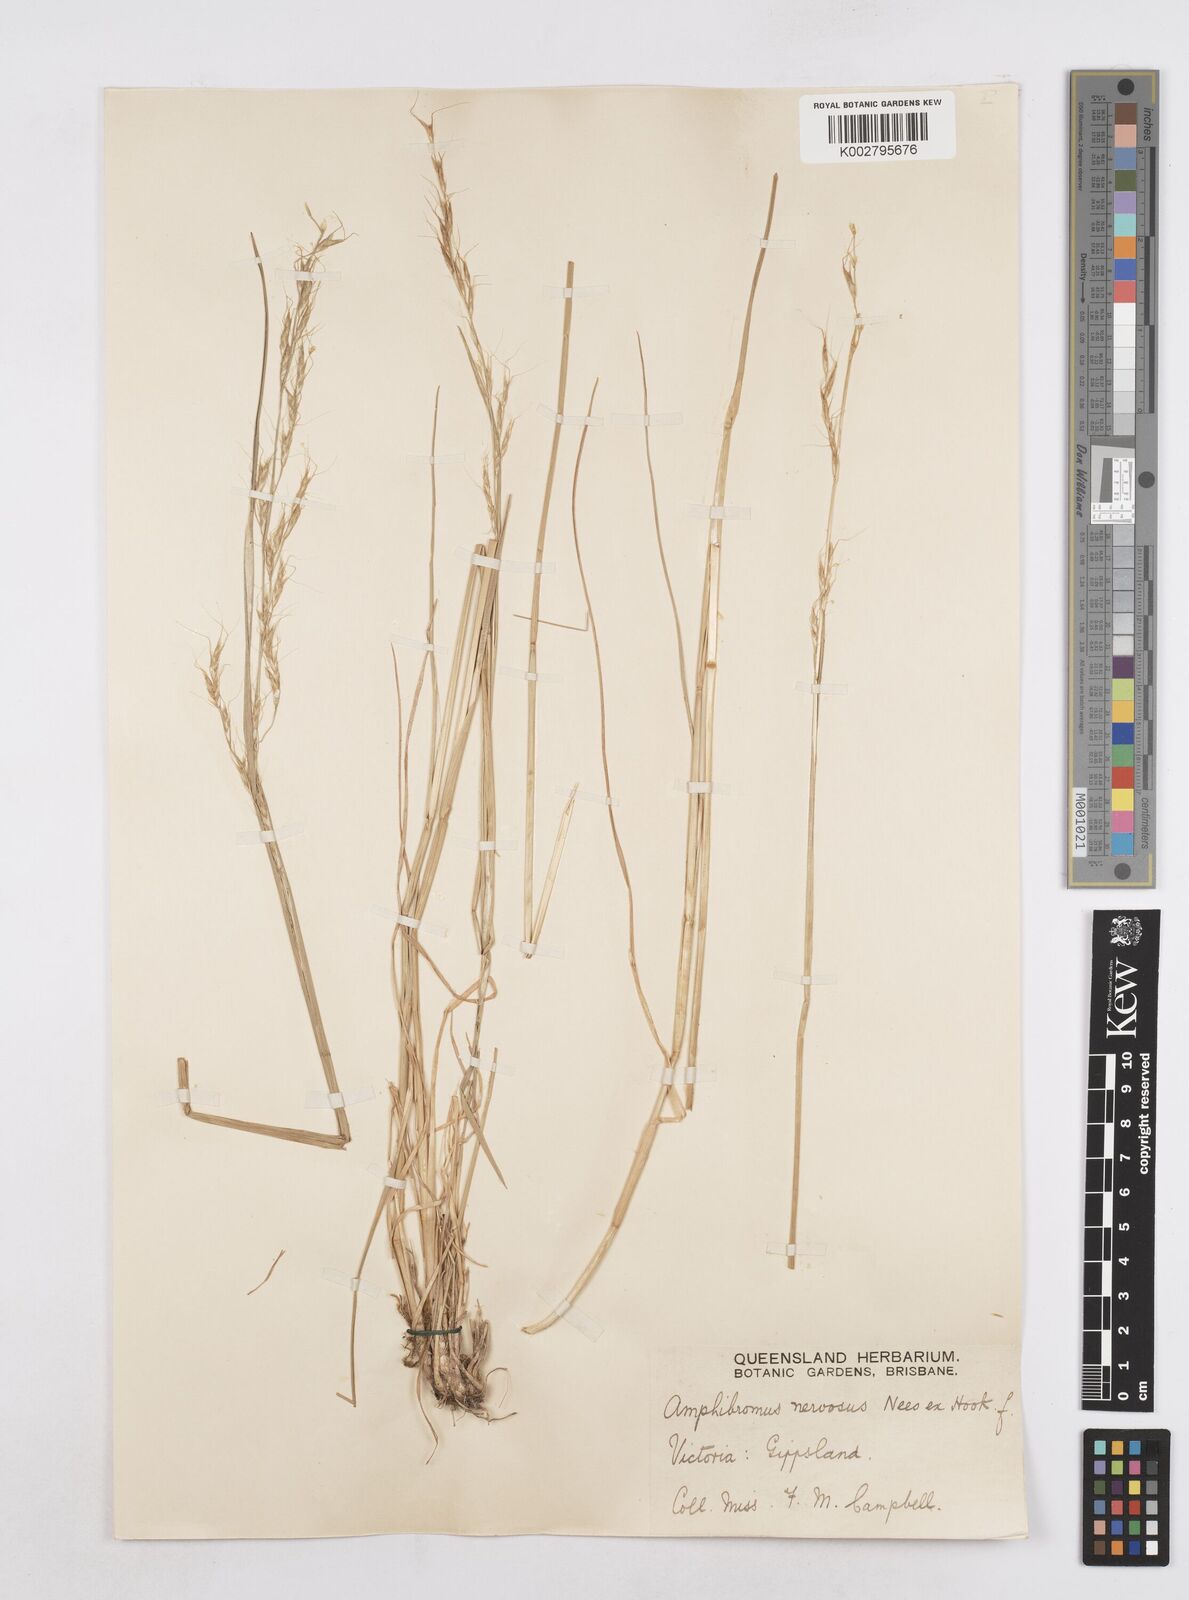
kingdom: Plantae
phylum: Tracheophyta
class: Liliopsida
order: Poales
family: Poaceae
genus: Amphibromus
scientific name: Amphibromus neesii
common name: Australian wallaby grass
